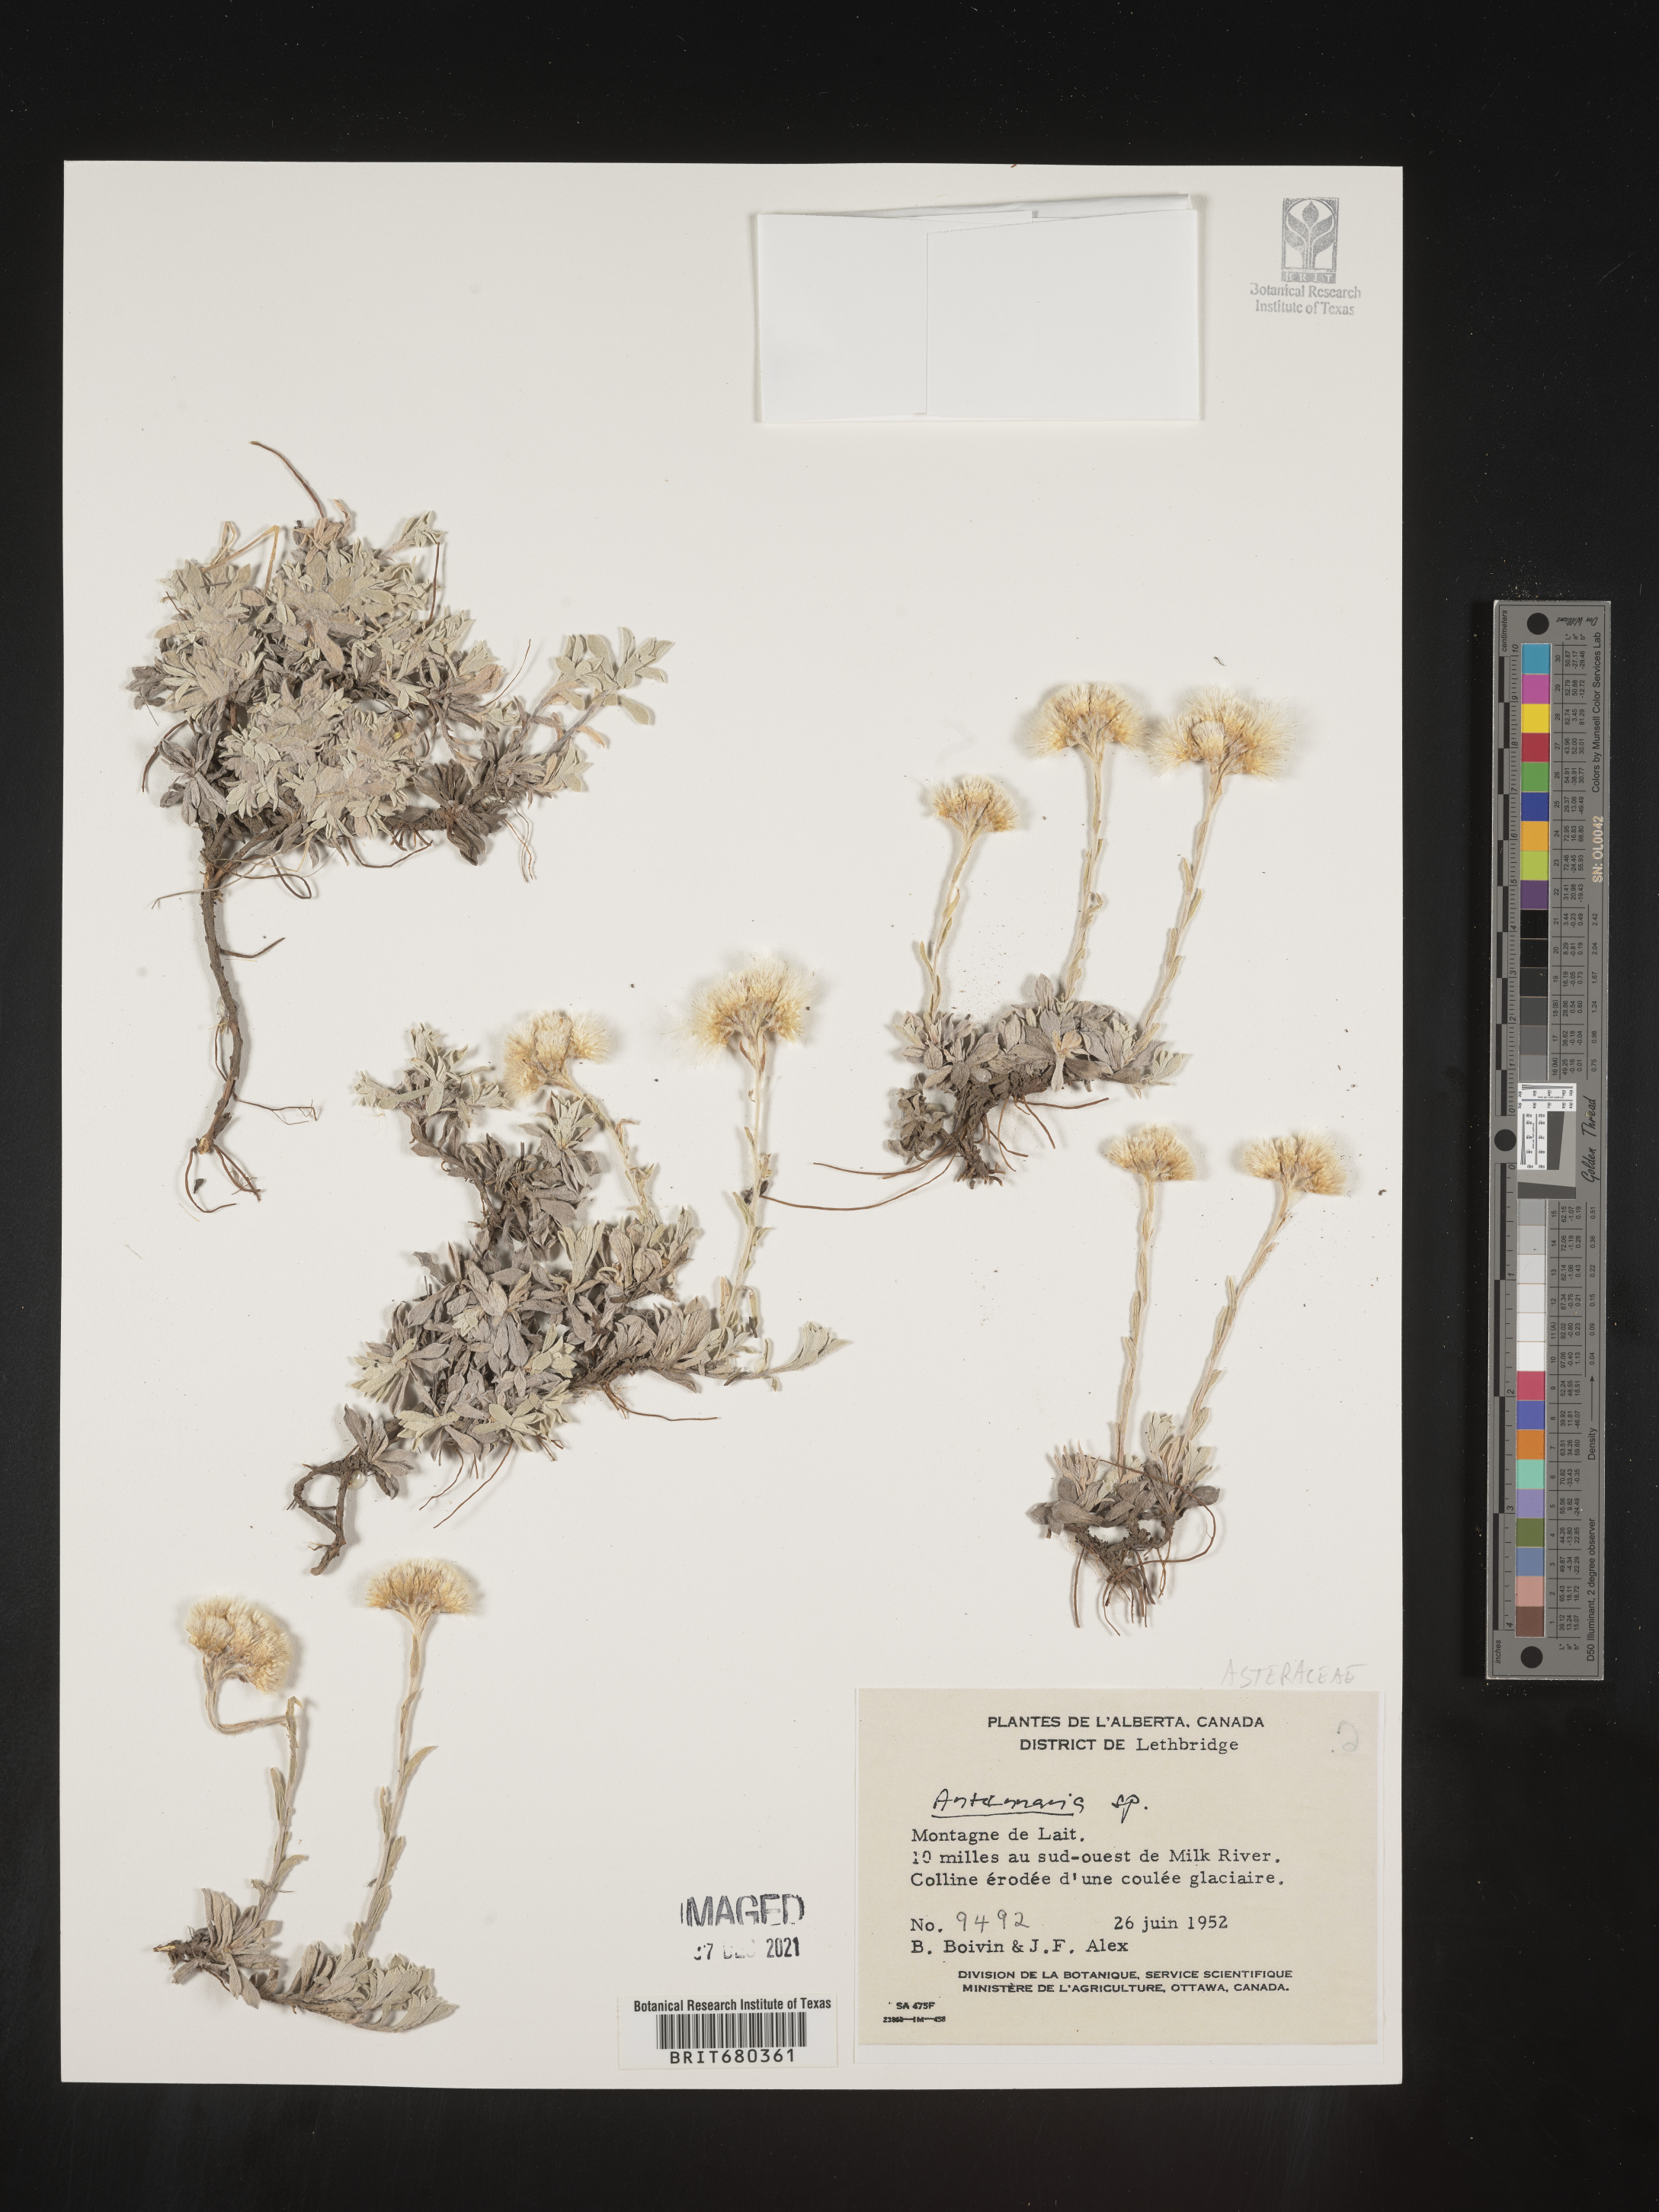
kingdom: Plantae
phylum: Tracheophyta
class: Magnoliopsida
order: Asterales
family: Asteraceae
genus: Antennaria
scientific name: Antennaria
